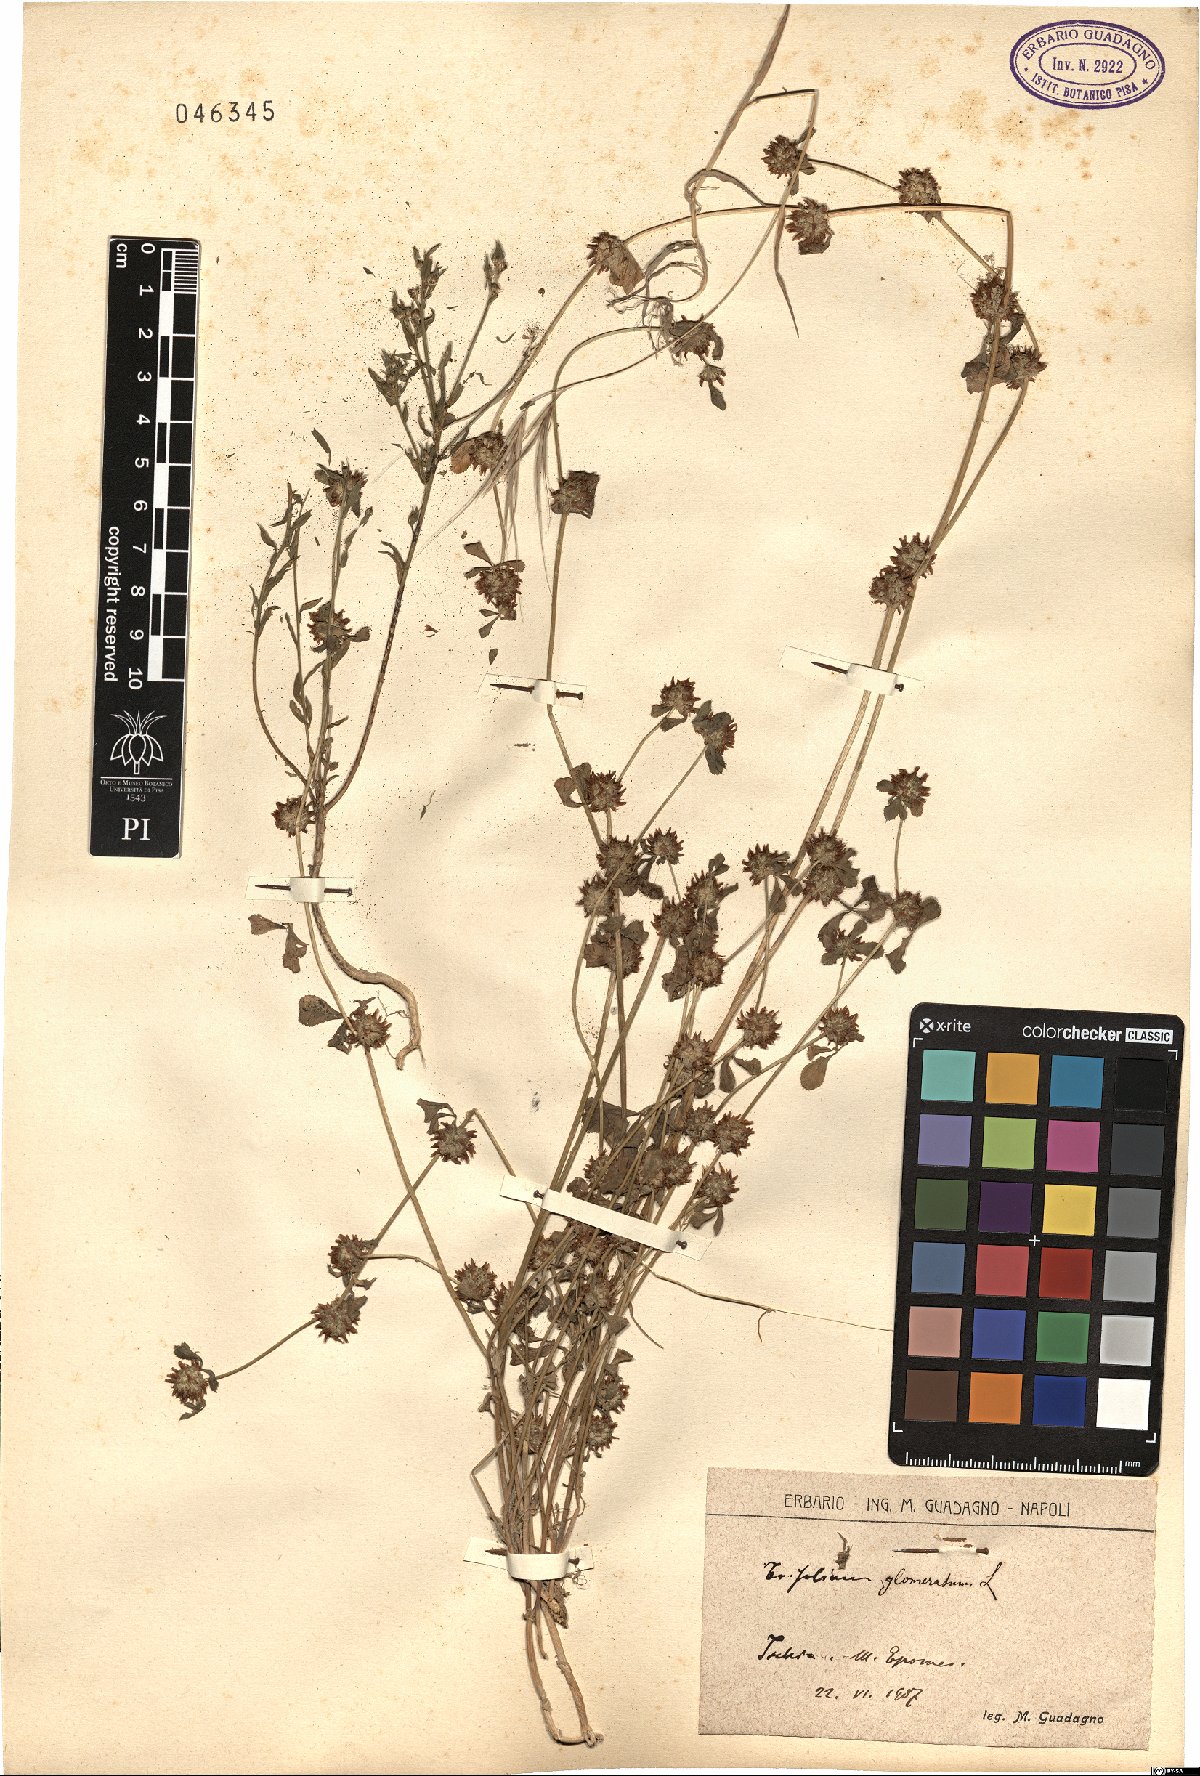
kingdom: Plantae
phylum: Tracheophyta
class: Magnoliopsida
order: Fabales
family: Fabaceae
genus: Trifolium
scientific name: Trifolium glomeratum
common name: Clustered clover
